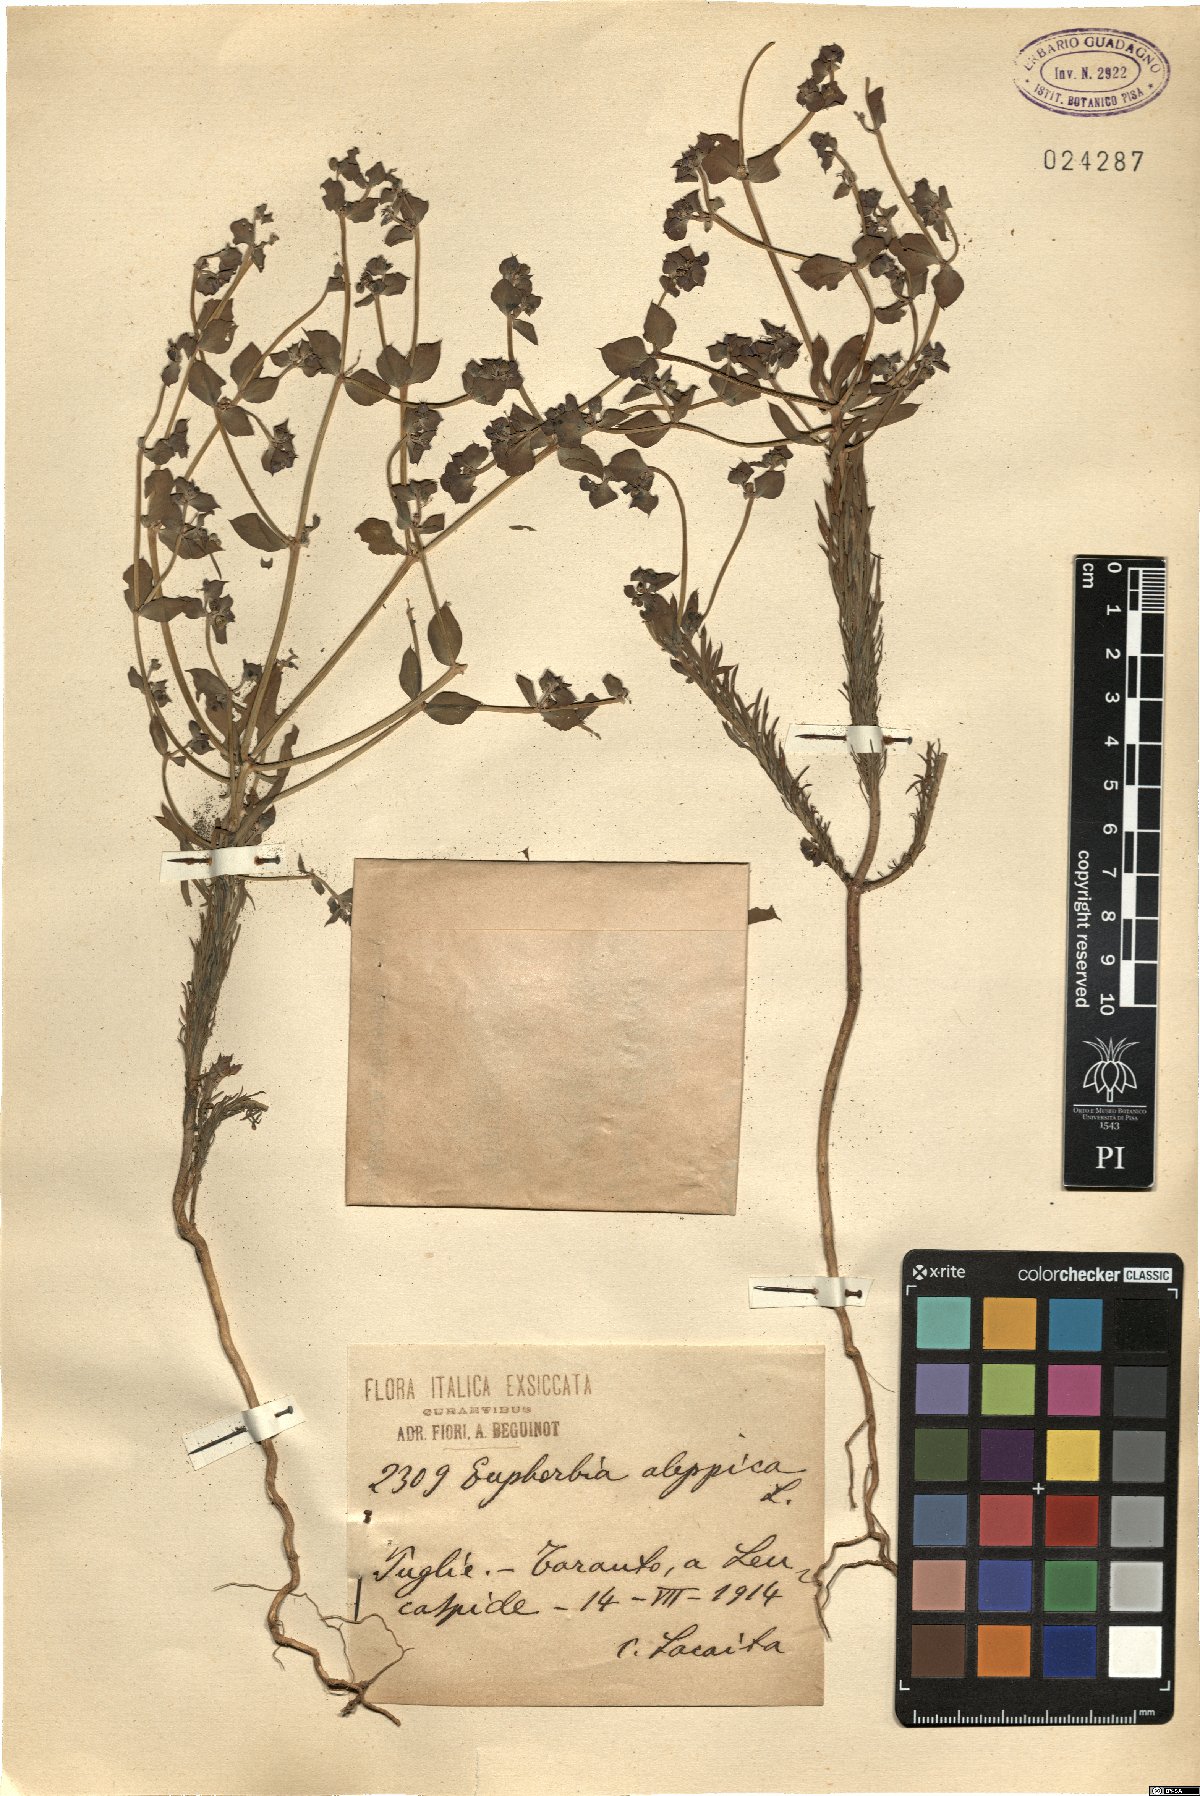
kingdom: Plantae
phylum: Tracheophyta
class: Magnoliopsida
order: Malpighiales
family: Euphorbiaceae
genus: Euphorbia
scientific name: Euphorbia aleppica
